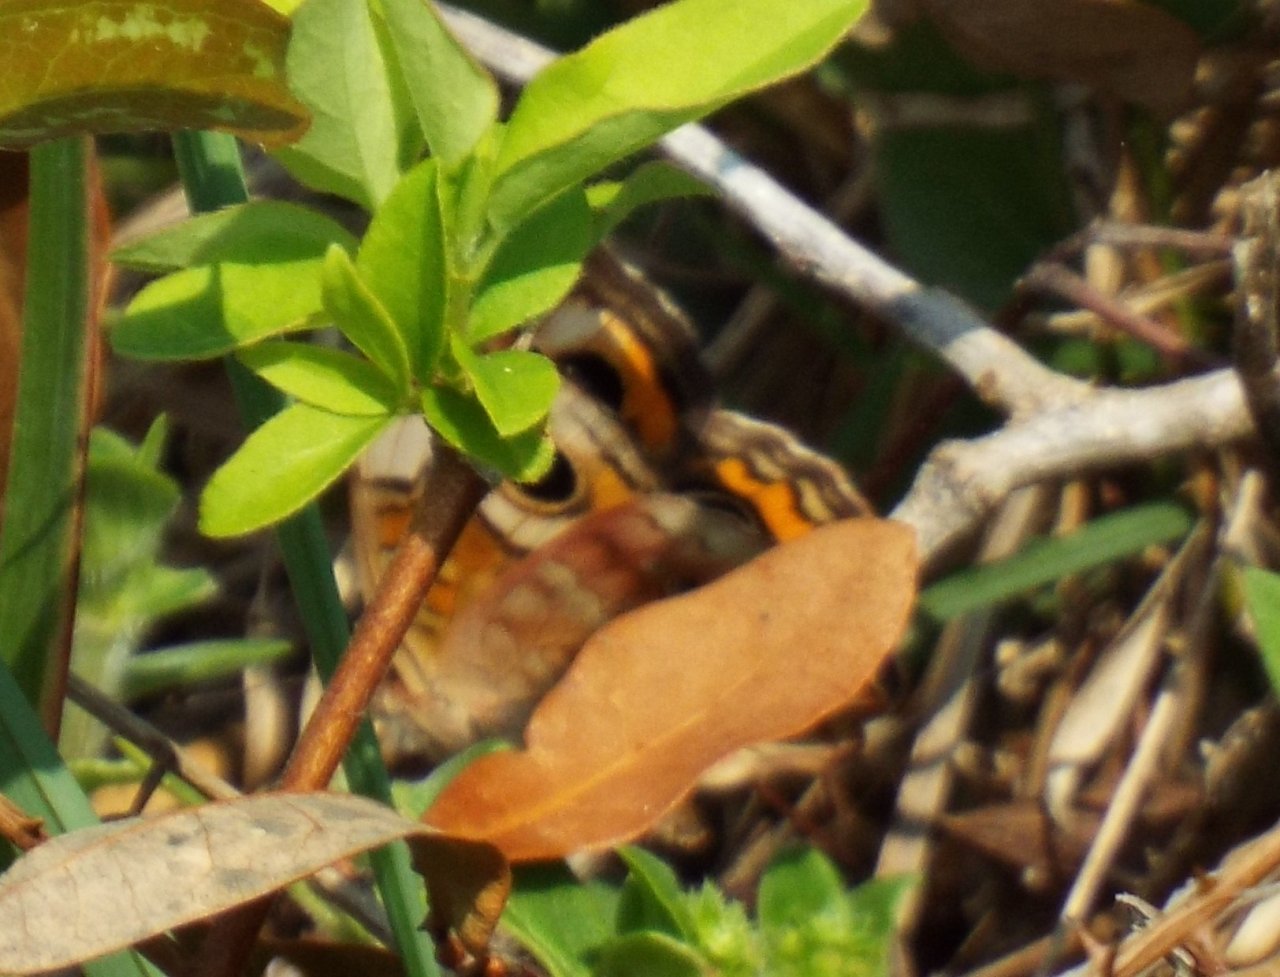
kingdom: Animalia
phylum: Arthropoda
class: Insecta
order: Lepidoptera
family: Nymphalidae
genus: Junonia
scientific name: Junonia coenia
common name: Common Buckeye
